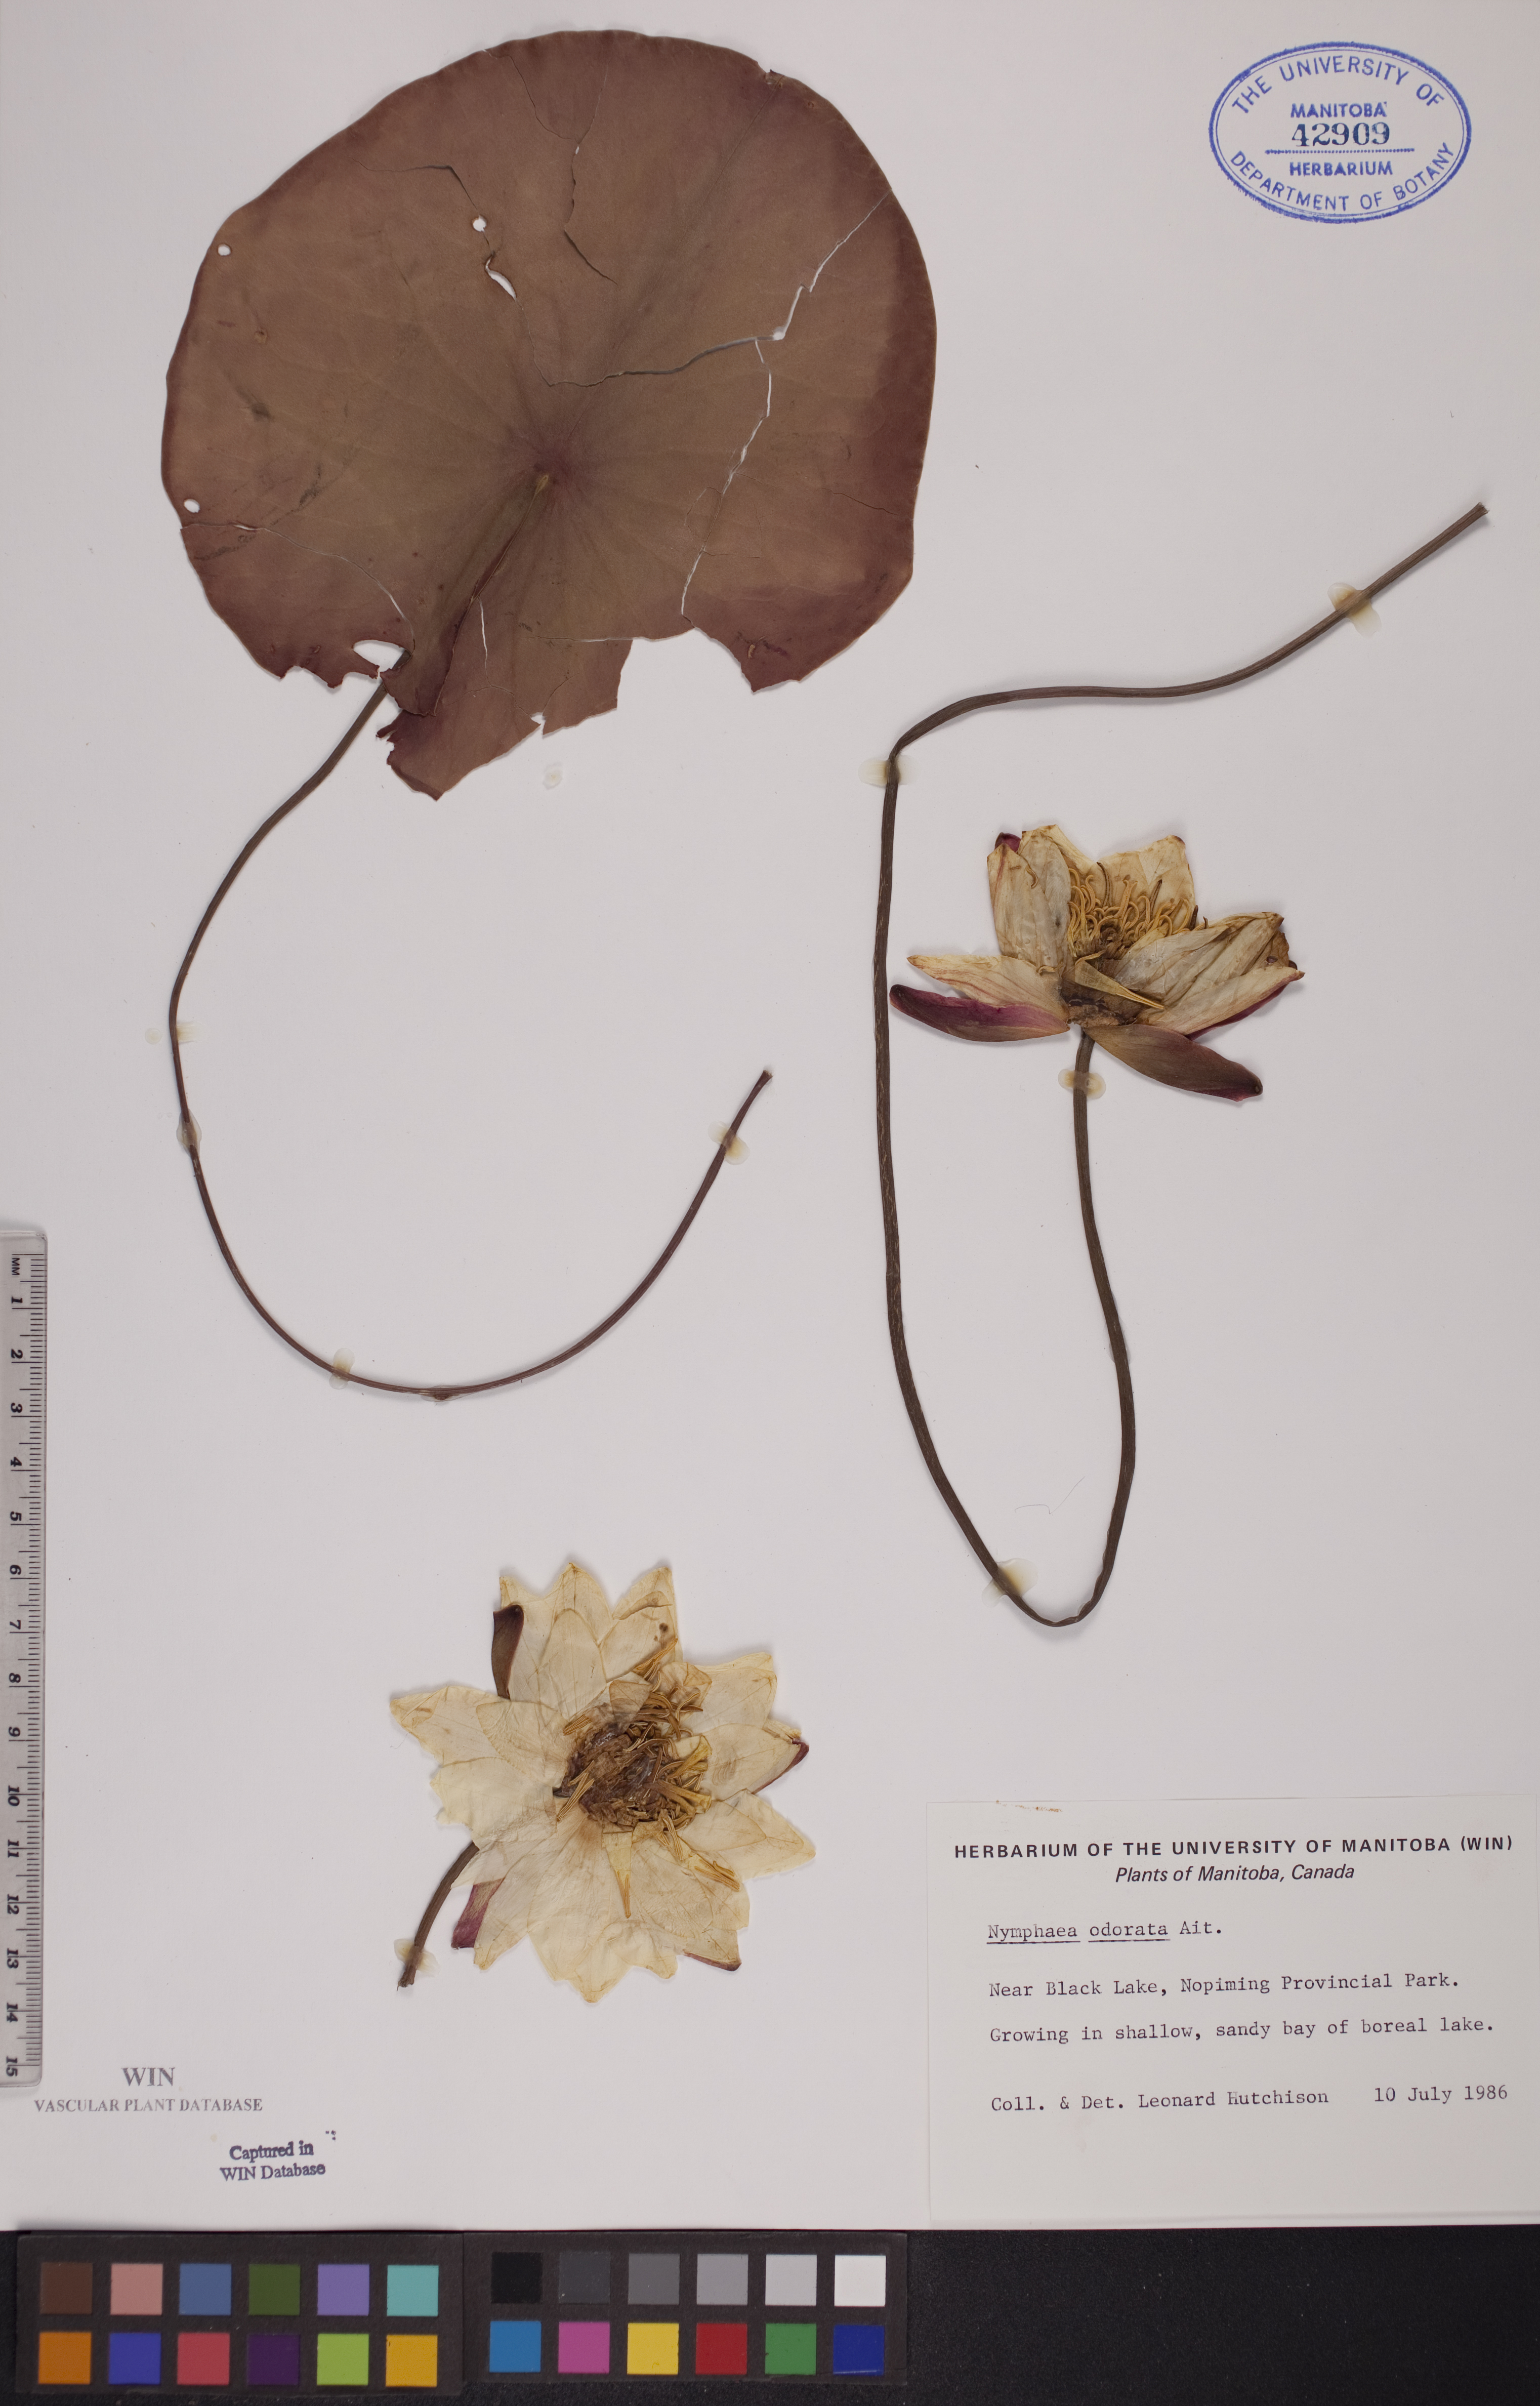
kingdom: Plantae
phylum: Tracheophyta
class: Magnoliopsida
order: Nymphaeales
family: Nymphaeaceae
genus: Nymphaea
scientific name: Nymphaea odorata
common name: Fragrant water-lily
